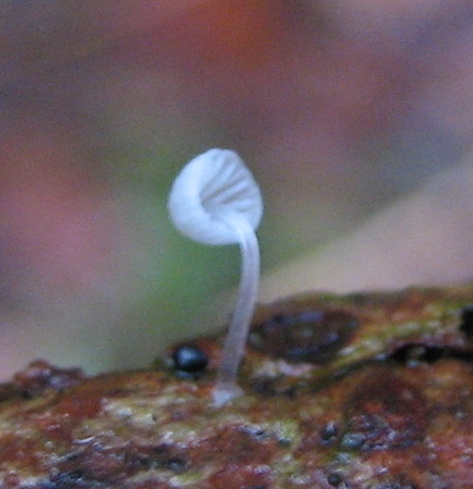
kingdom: Fungi
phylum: Basidiomycota
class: Agaricomycetes
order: Agaricales
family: Mycenaceae
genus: Mycena
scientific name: Mycena tenerrima
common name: pudret huesvamp
